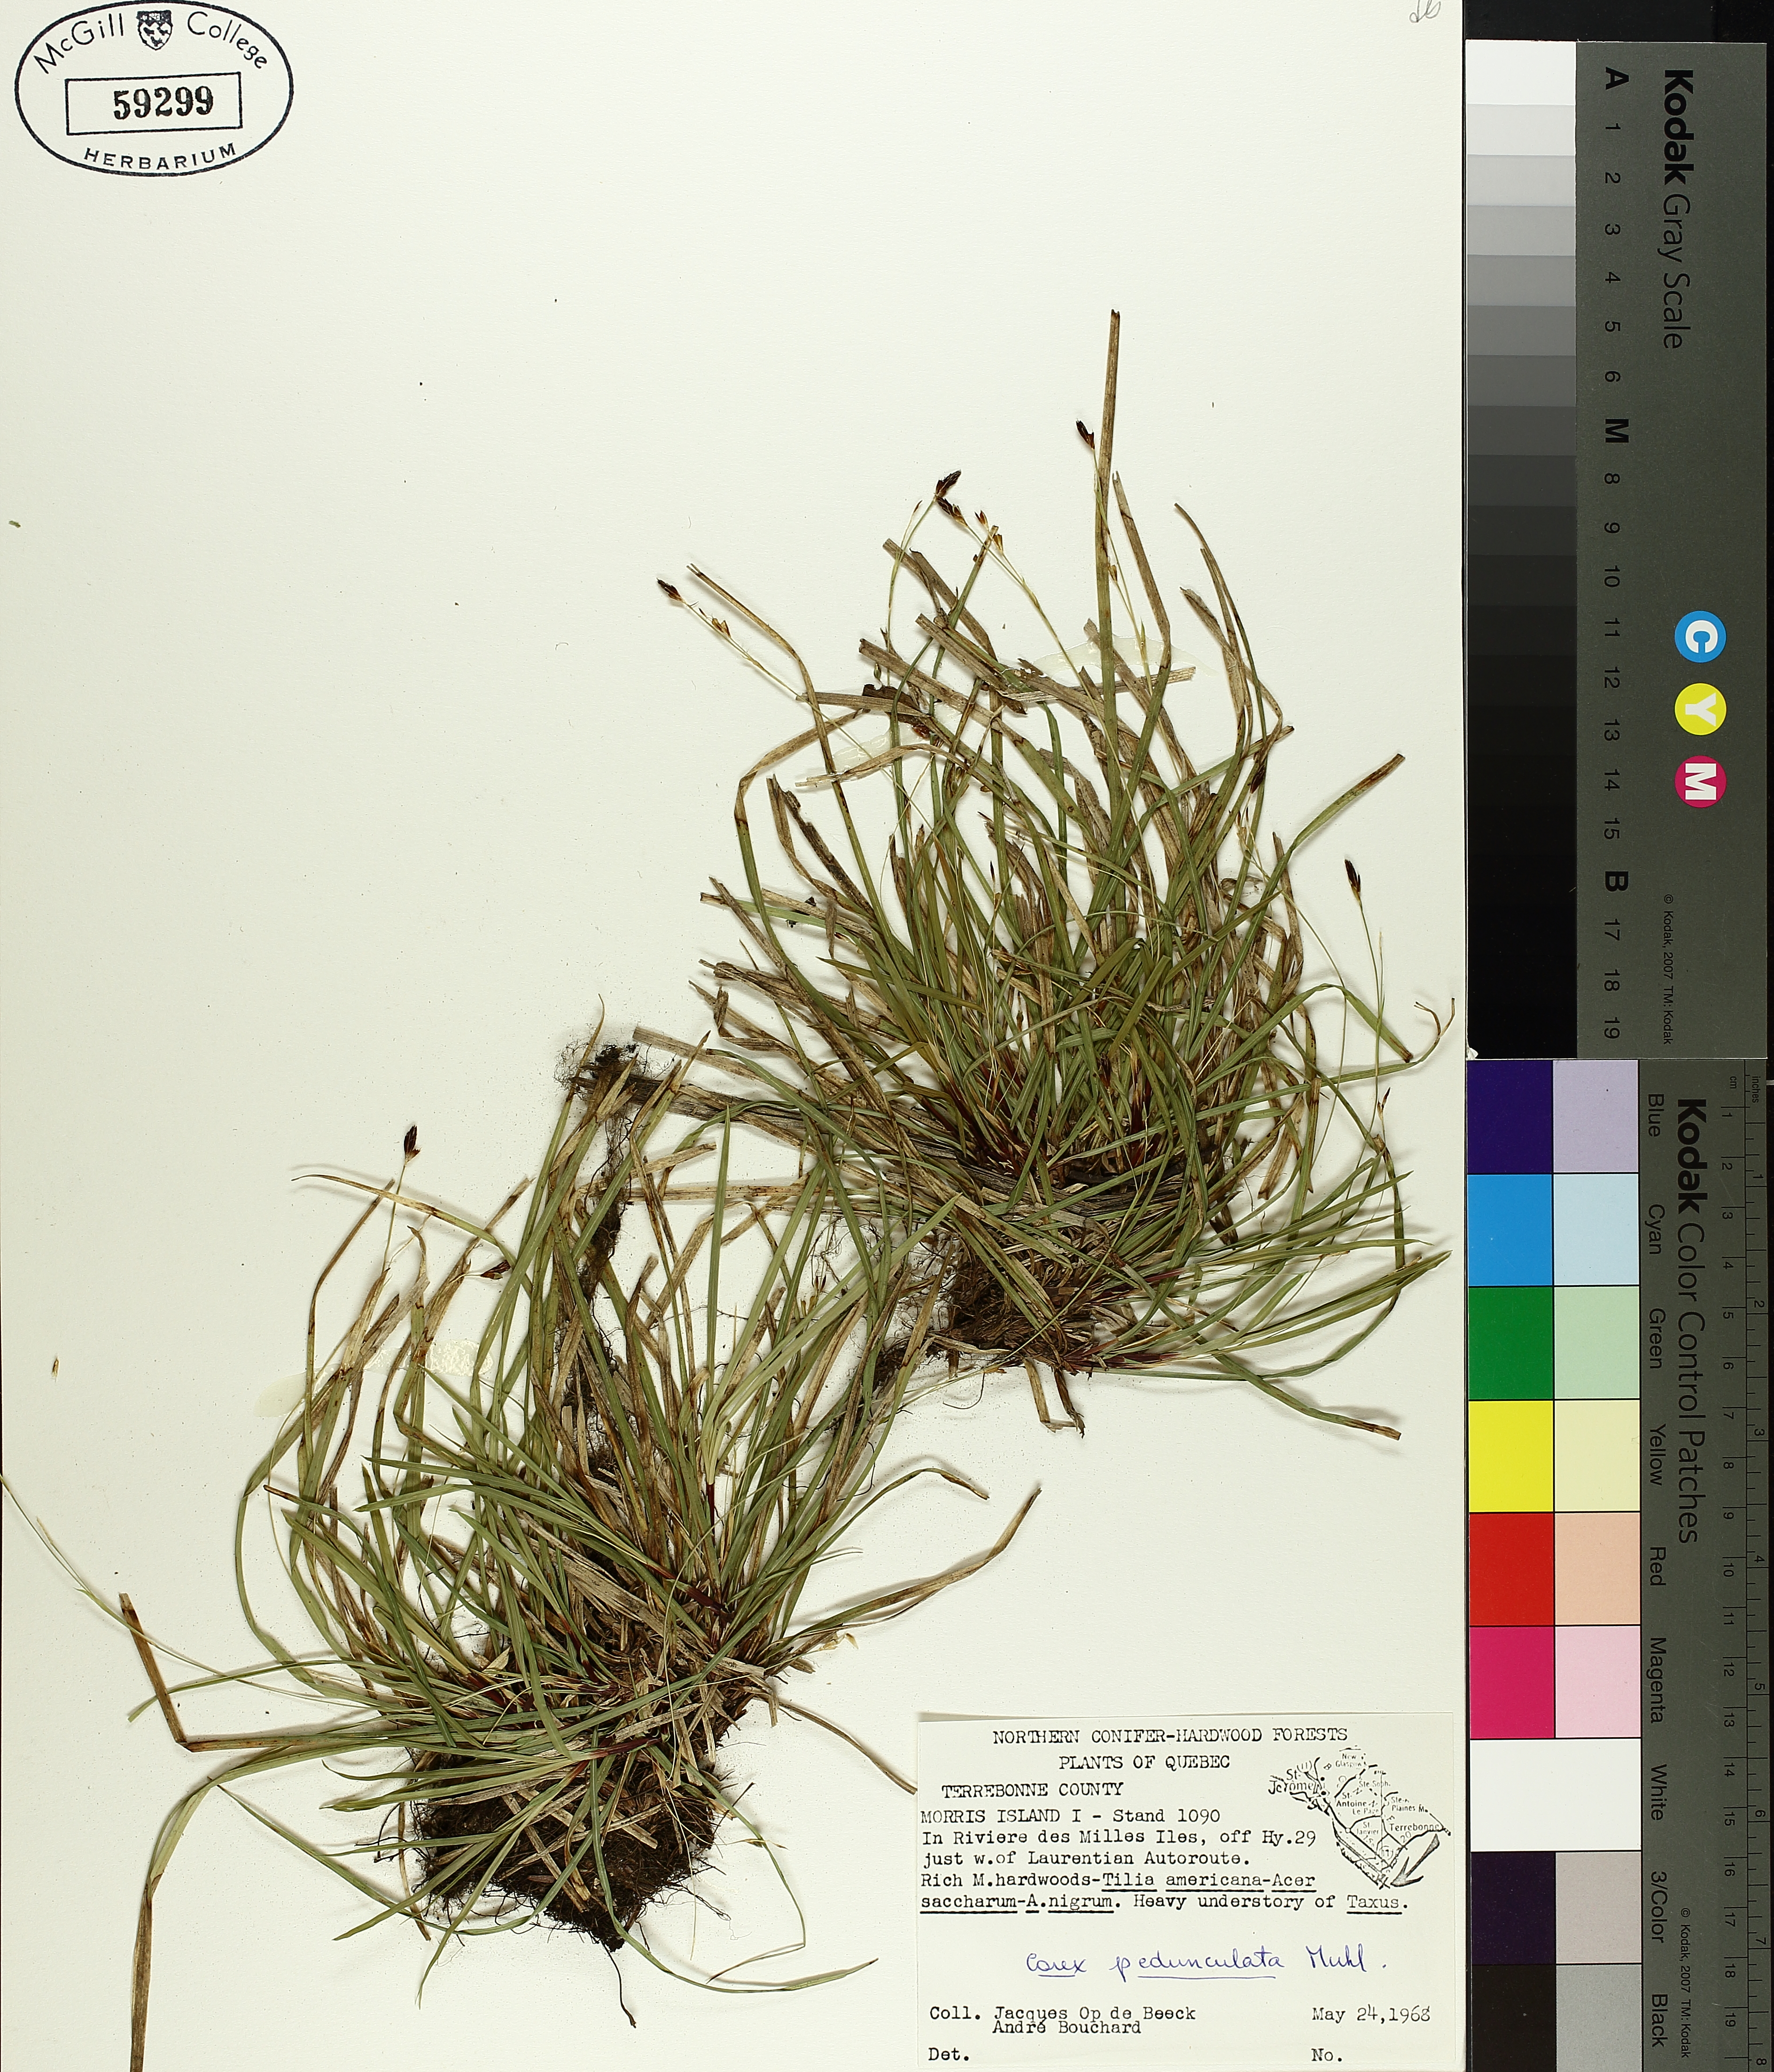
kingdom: Plantae
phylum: Tracheophyta
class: Liliopsida
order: Poales
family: Cyperaceae
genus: Carex
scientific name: Carex pedunculata
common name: Pedunculate sedge
